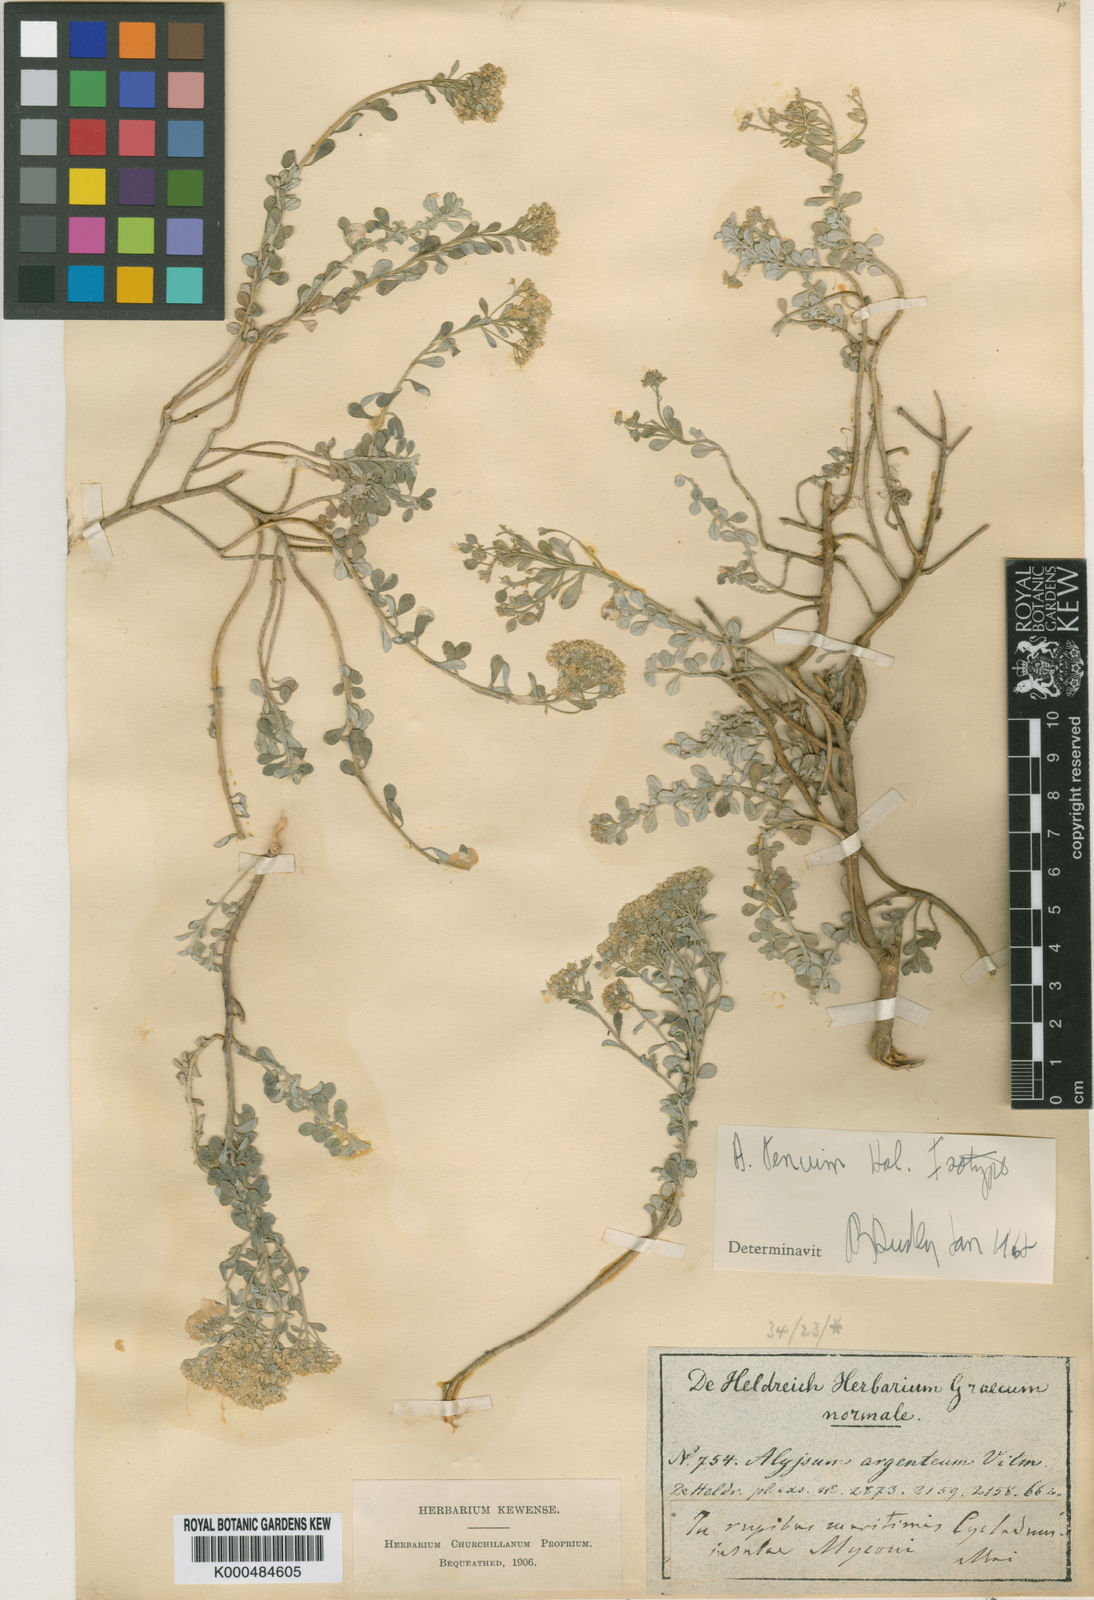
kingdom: Plantae
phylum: Tracheophyta
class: Magnoliopsida
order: Brassicales
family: Brassicaceae
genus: Alyssum
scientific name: Alyssum
